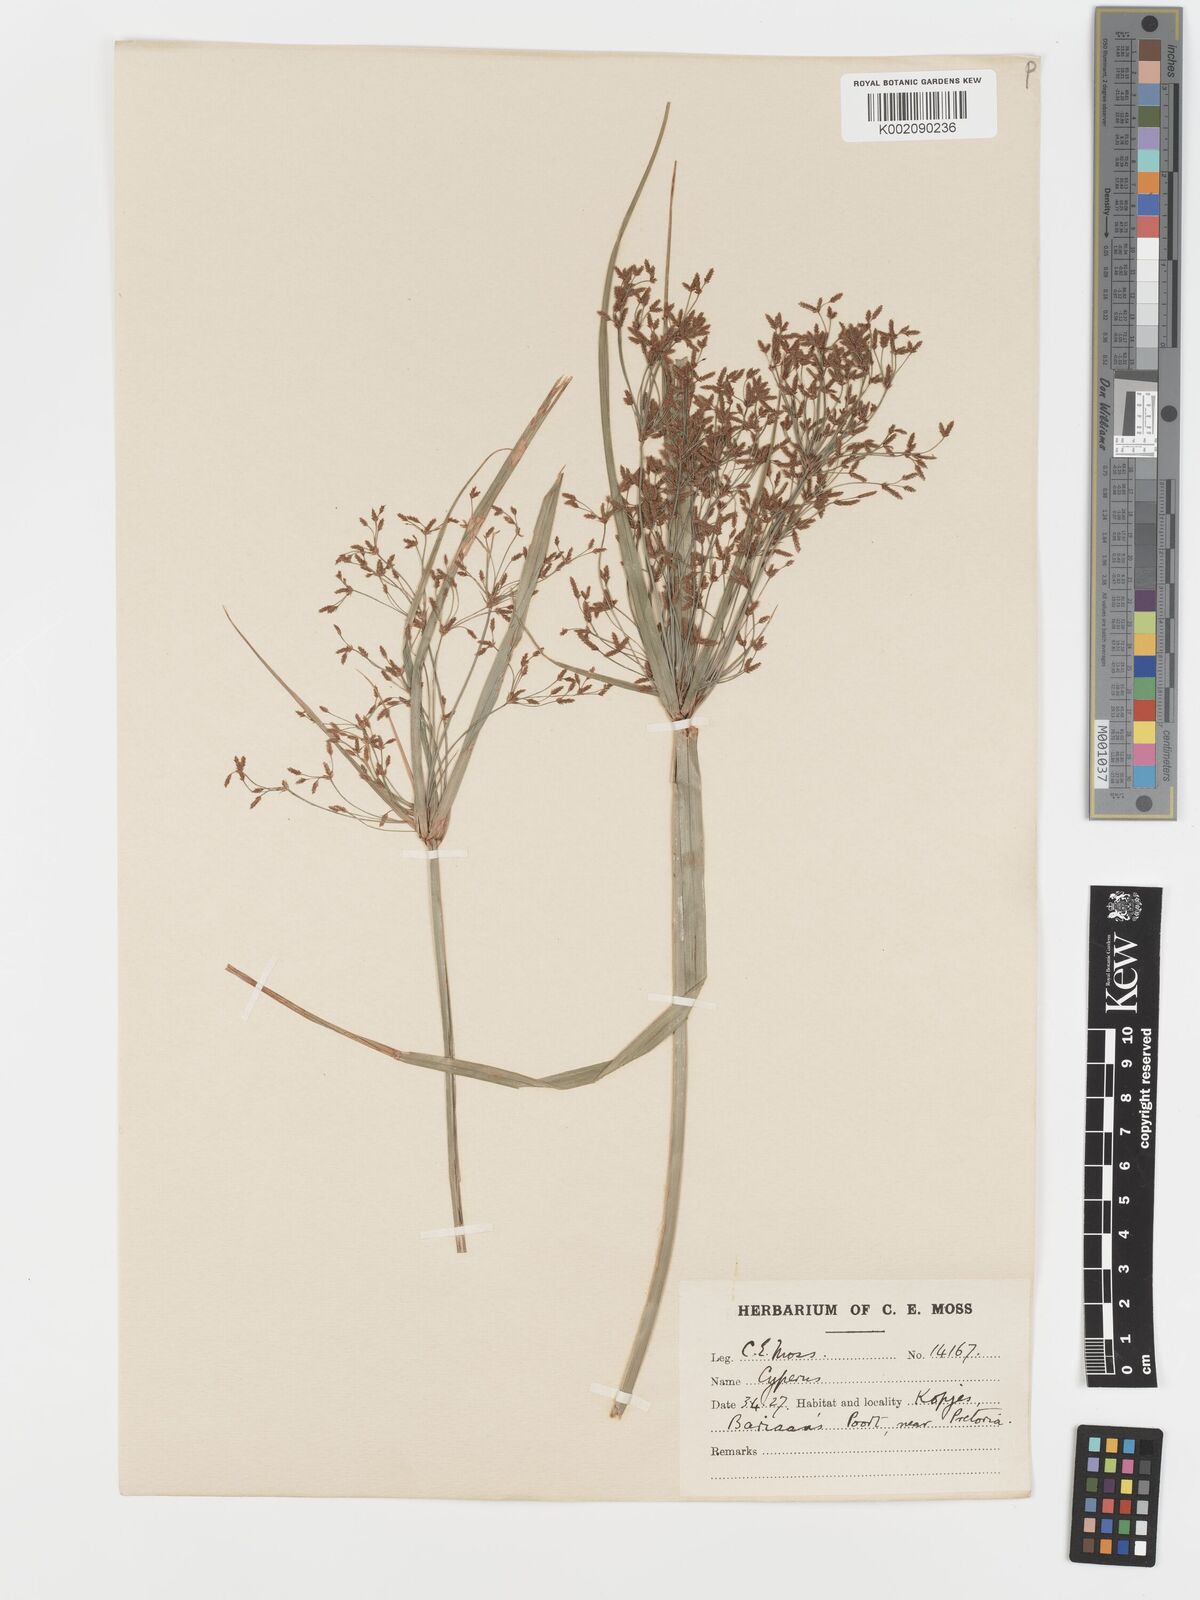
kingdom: Plantae
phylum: Tracheophyta
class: Liliopsida
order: Poales
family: Cyperaceae
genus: Cyperus
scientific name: Cyperus leptocladus
